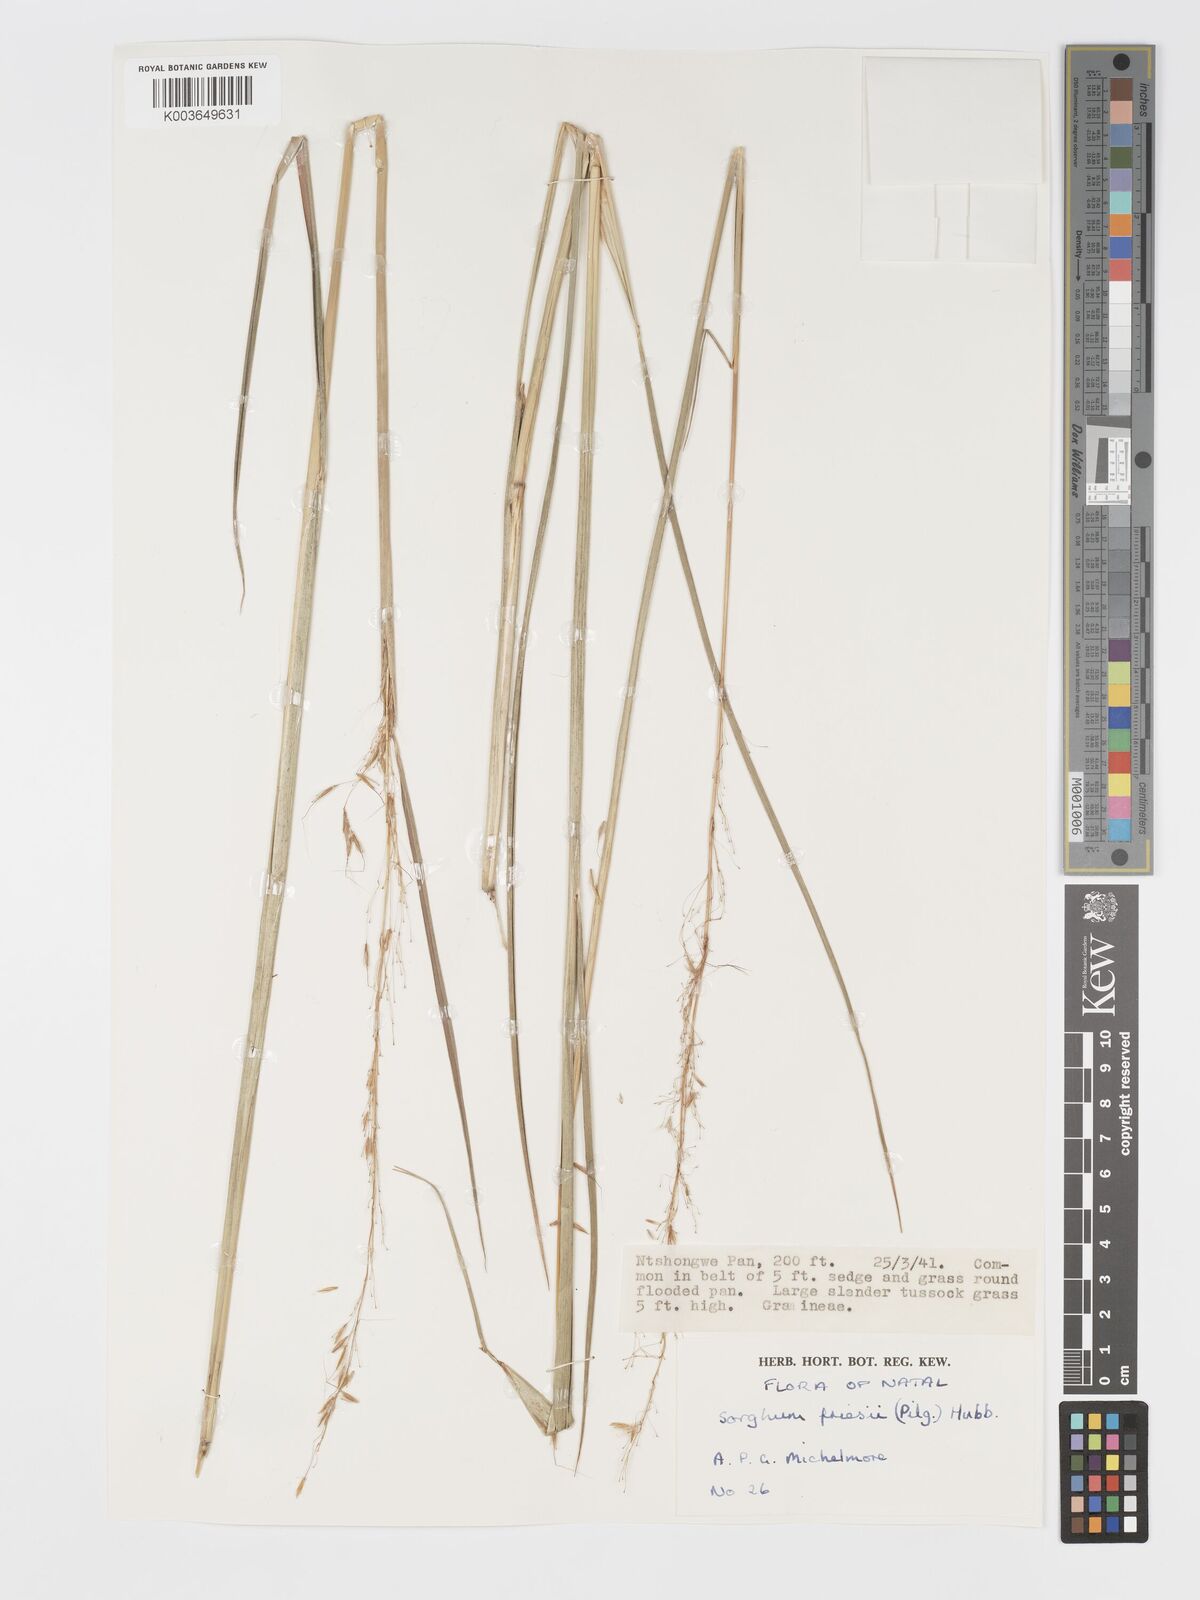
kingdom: Plantae
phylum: Tracheophyta
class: Liliopsida
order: Poales
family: Poaceae
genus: Sorghastrum
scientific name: Sorghastrum nudipes
